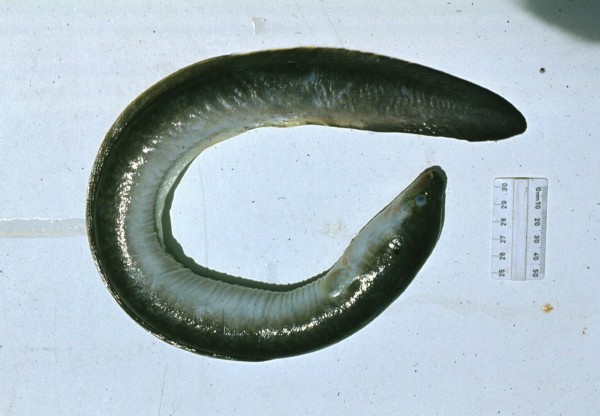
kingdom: Animalia
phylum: Chordata
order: Anguilliformes
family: Anguillidae
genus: Anguilla
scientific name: Anguilla marmorata
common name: Giant mottled eel
